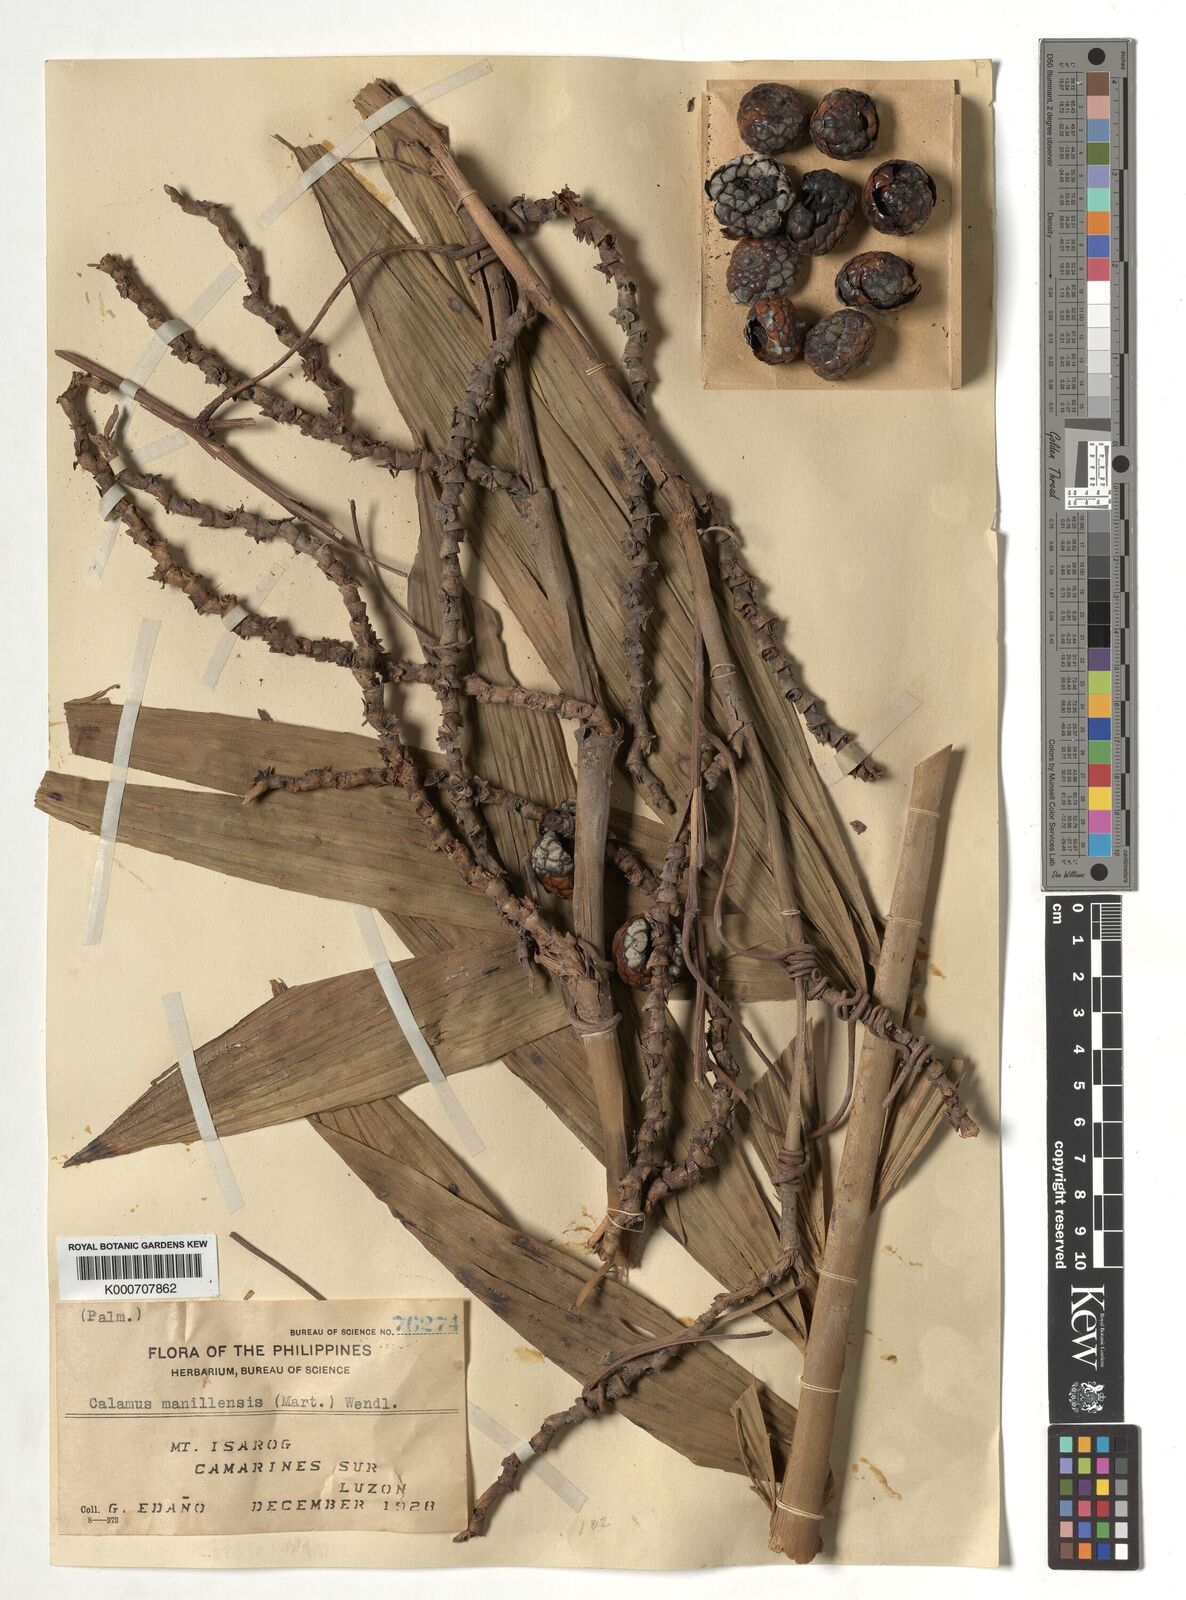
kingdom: Plantae
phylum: Tracheophyta
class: Liliopsida
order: Arecales
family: Arecaceae
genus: Calamus
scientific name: Calamus manillensis
